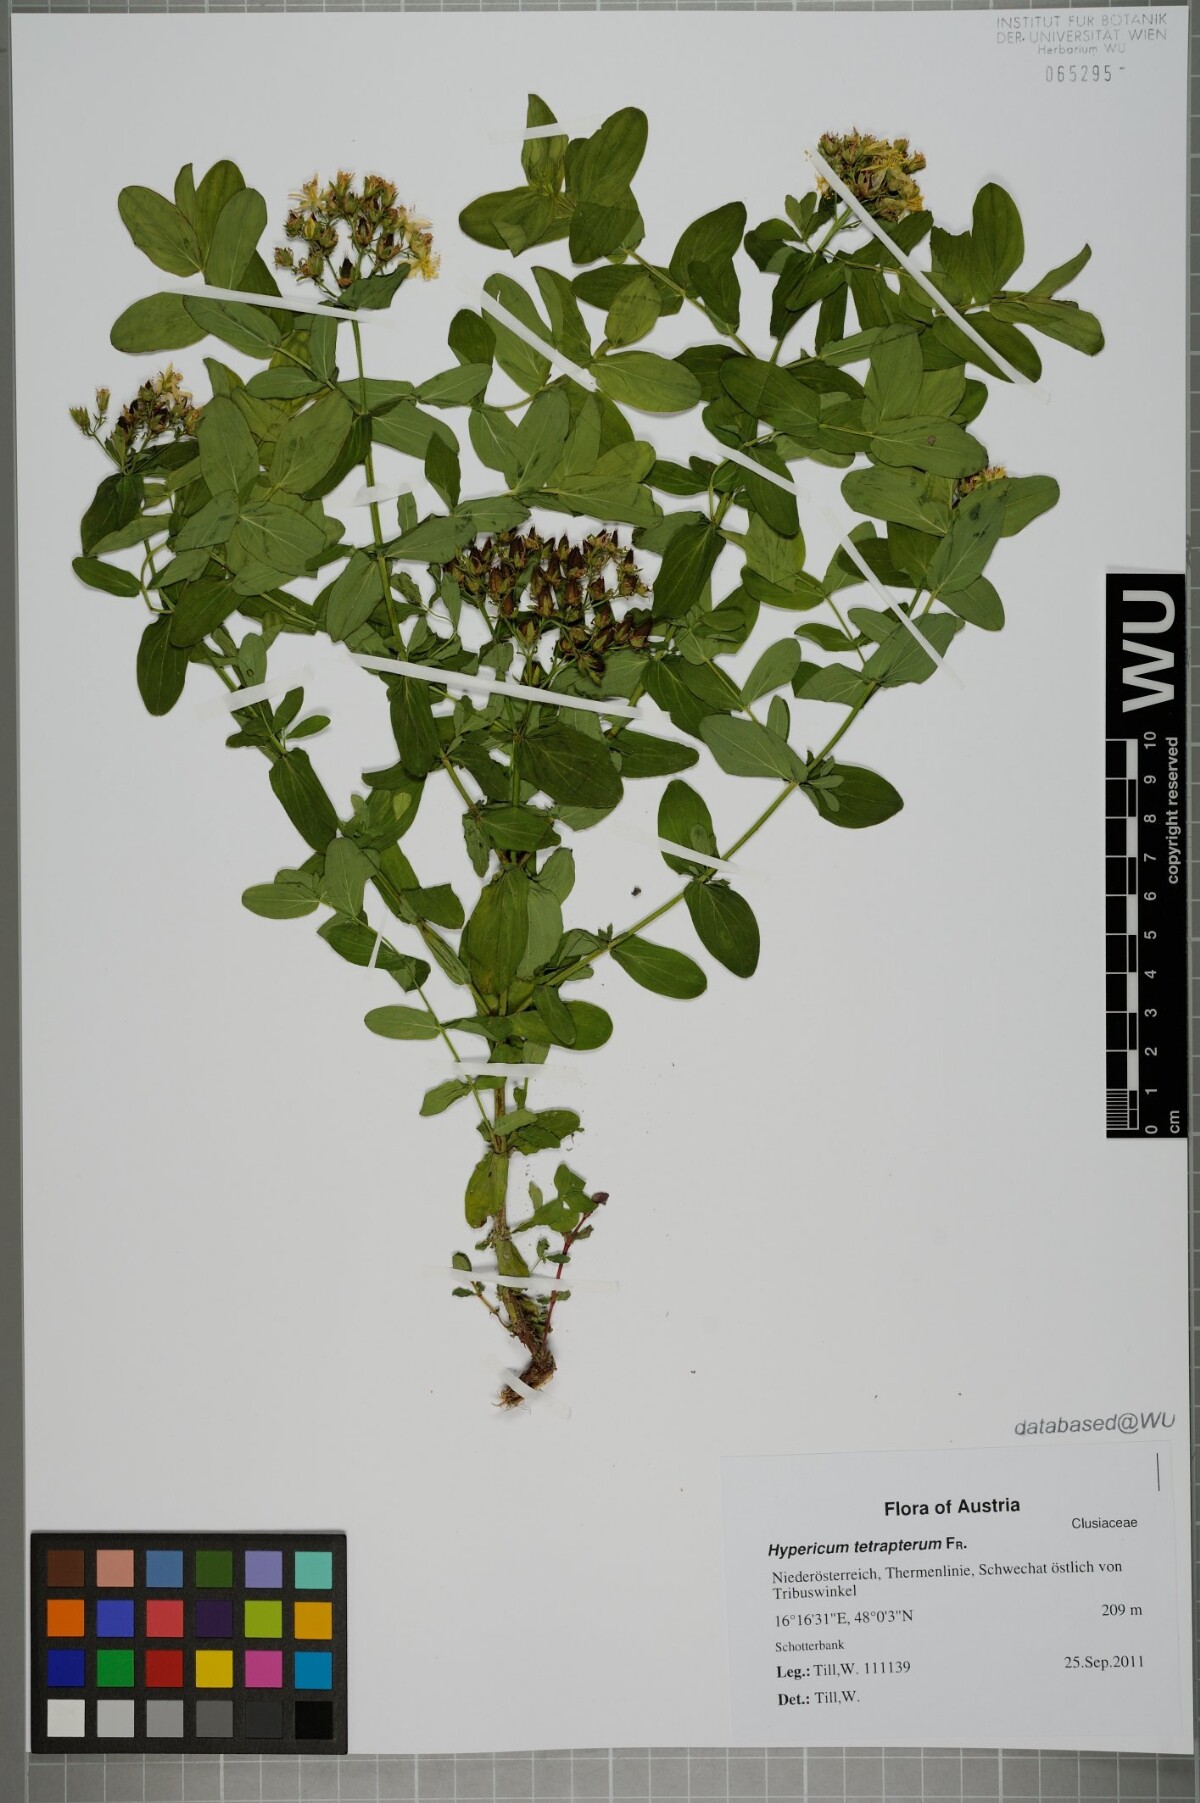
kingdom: Plantae
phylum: Tracheophyta
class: Magnoliopsida
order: Malpighiales
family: Hypericaceae
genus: Hypericum
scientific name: Hypericum tetrapterum
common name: Square-stalked st. john's-wort
